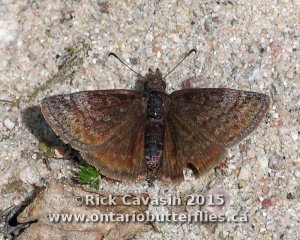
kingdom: Animalia
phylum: Arthropoda
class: Insecta
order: Lepidoptera
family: Hesperiidae
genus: Erynnis
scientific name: Erynnis icelus
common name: Dreamy Duskywing
